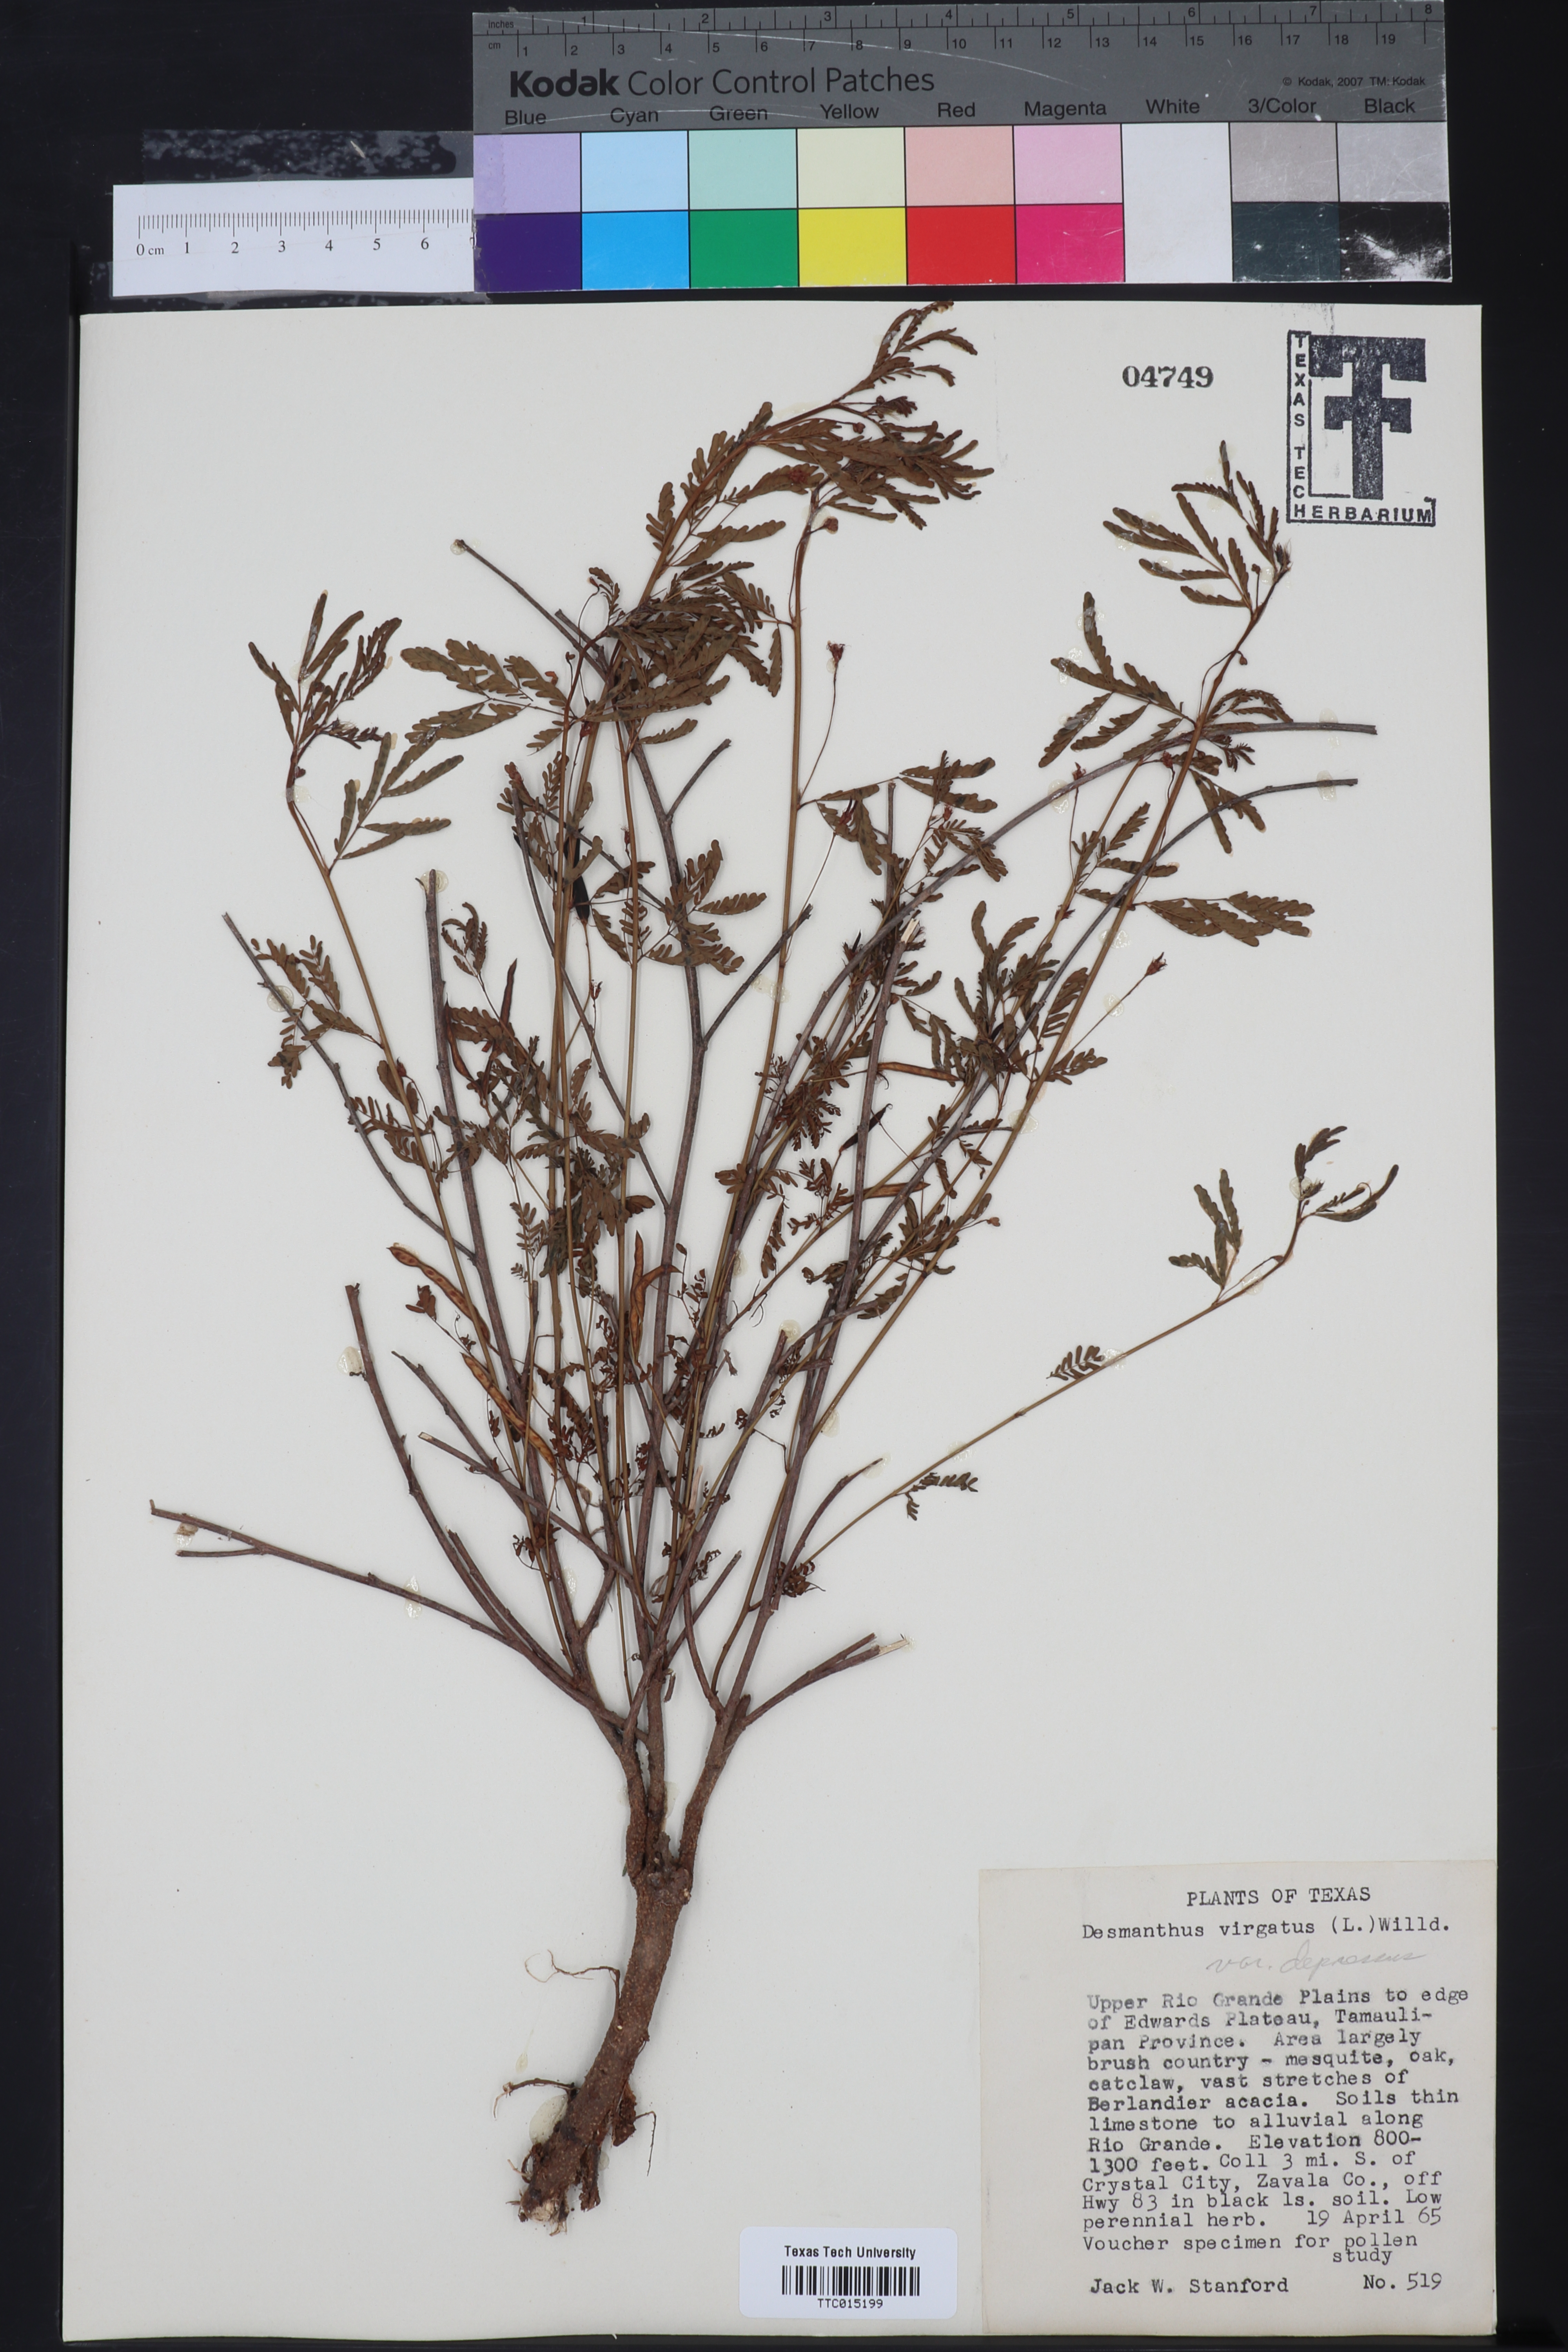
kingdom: Plantae
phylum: Tracheophyta
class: Magnoliopsida
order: Fabales
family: Fabaceae
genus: Desmanthus
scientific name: Desmanthus virgatus
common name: Wild tantan
